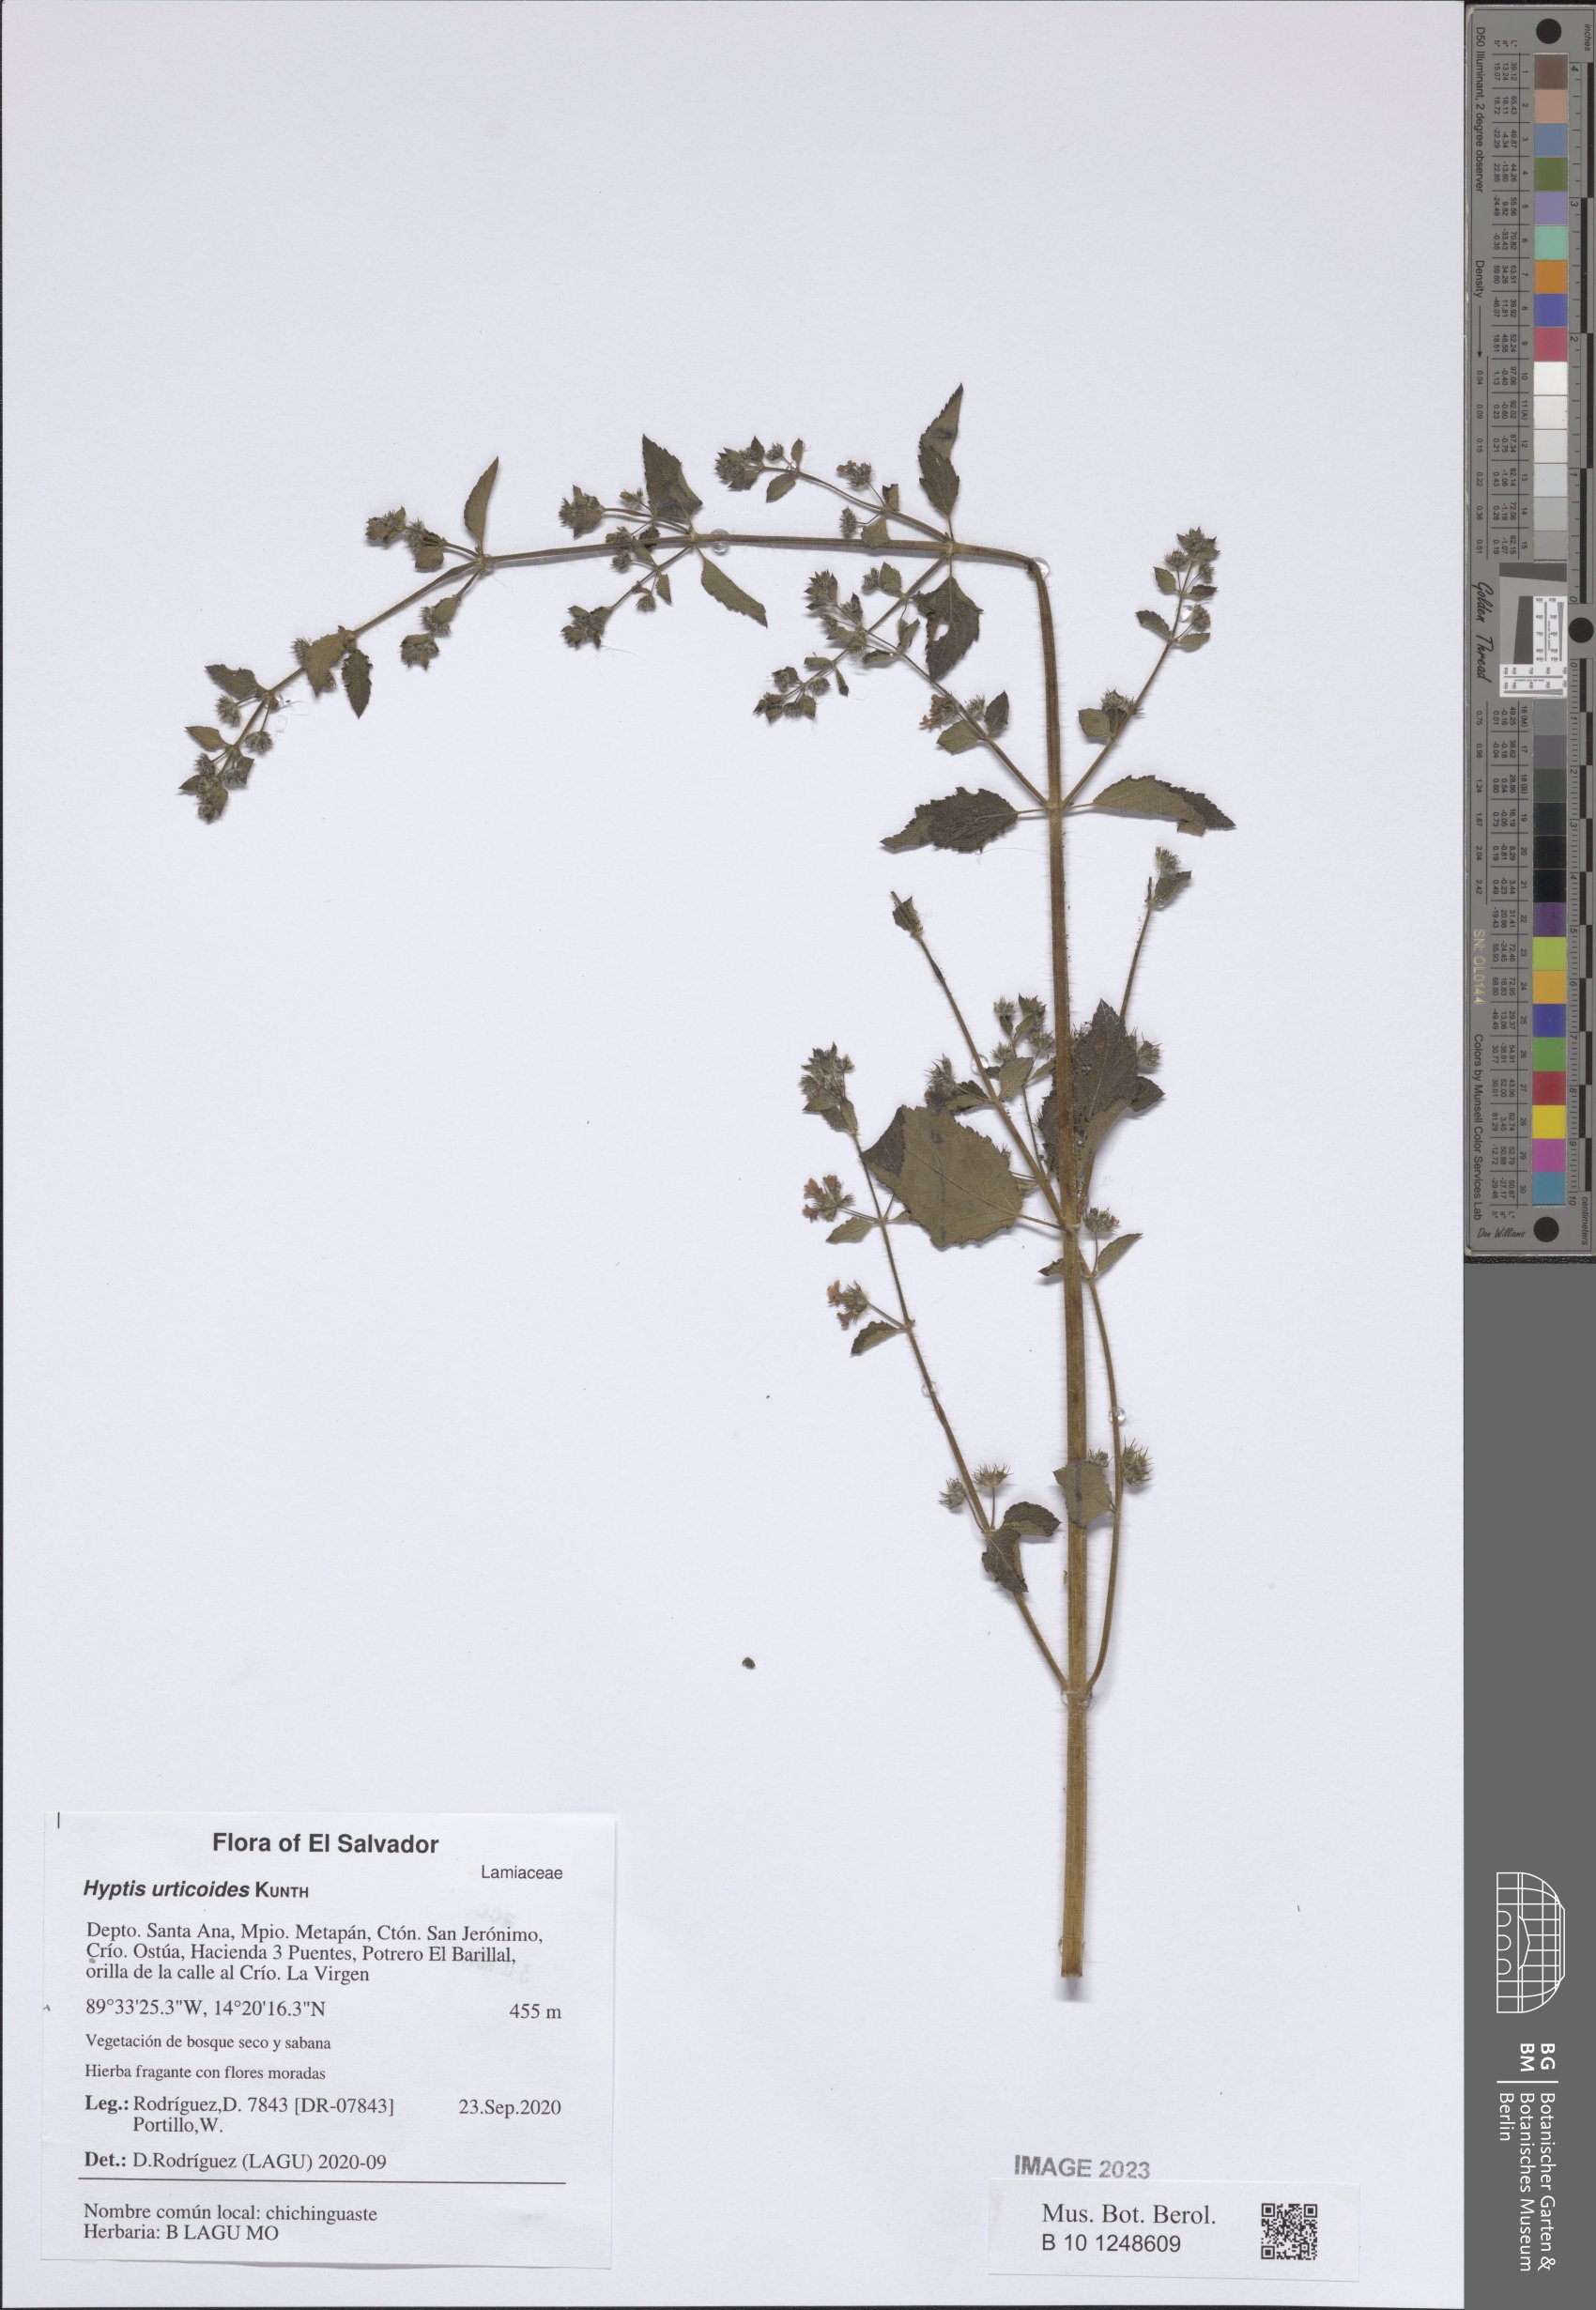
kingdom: Plantae
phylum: Tracheophyta
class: Magnoliopsida
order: Lamiales
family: Lamiaceae
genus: Mesosphaerum
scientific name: Mesosphaerum urticoides
